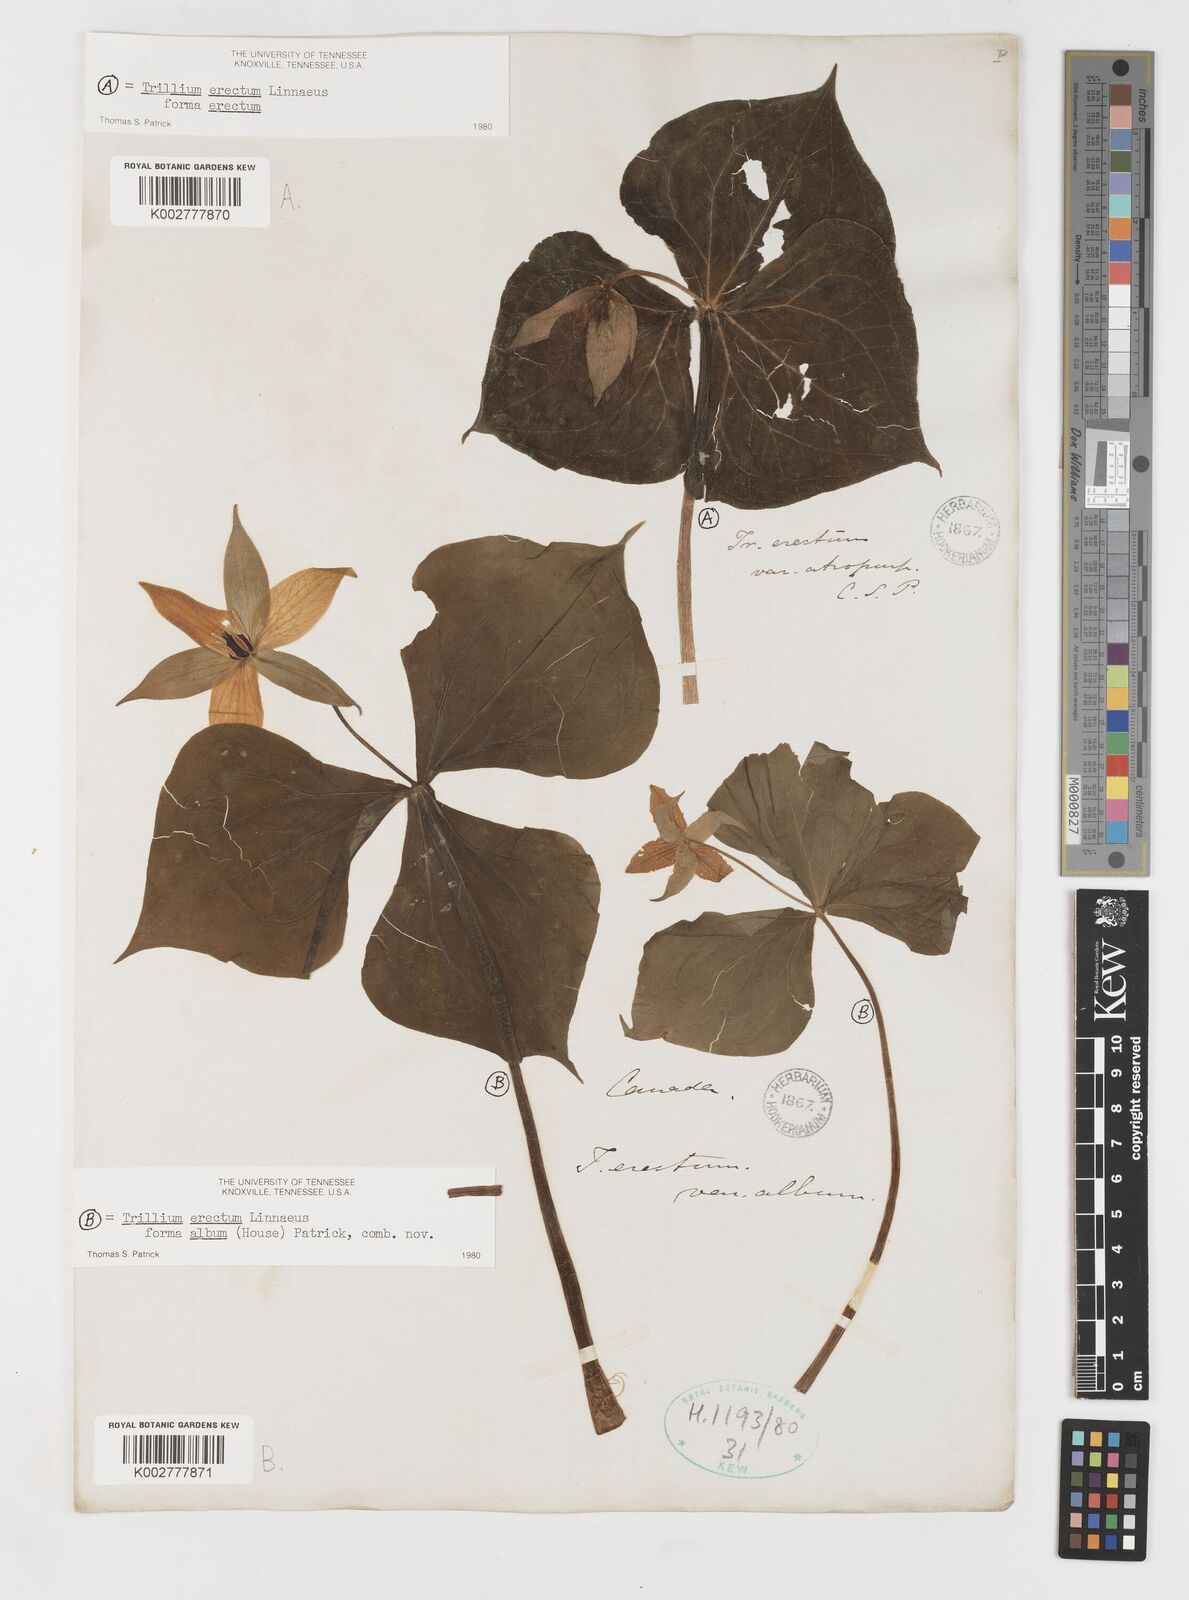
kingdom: Plantae
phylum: Tracheophyta
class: Liliopsida
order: Liliales
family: Melanthiaceae
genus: Trillium
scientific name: Trillium erectum
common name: Purple trillium
